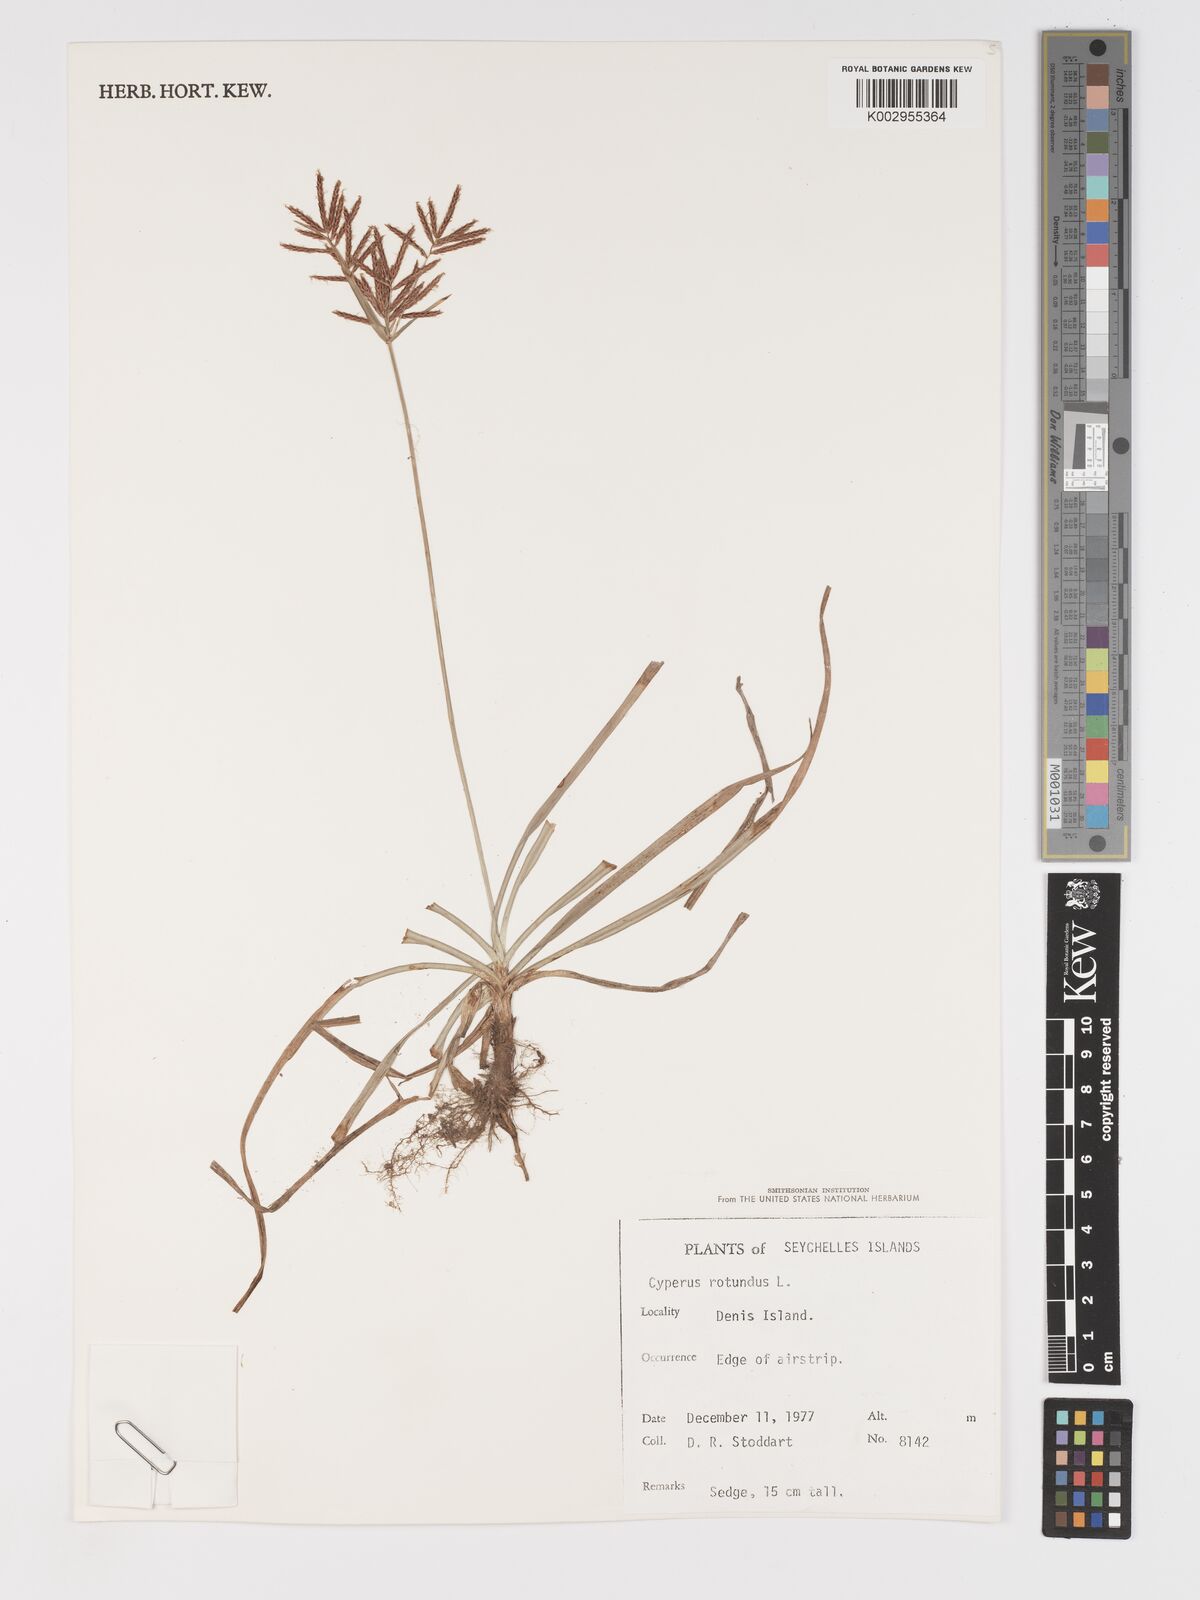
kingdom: Plantae
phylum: Tracheophyta
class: Liliopsida
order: Poales
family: Cyperaceae
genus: Cyperus
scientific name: Cyperus rotundus
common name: Nutgrass
